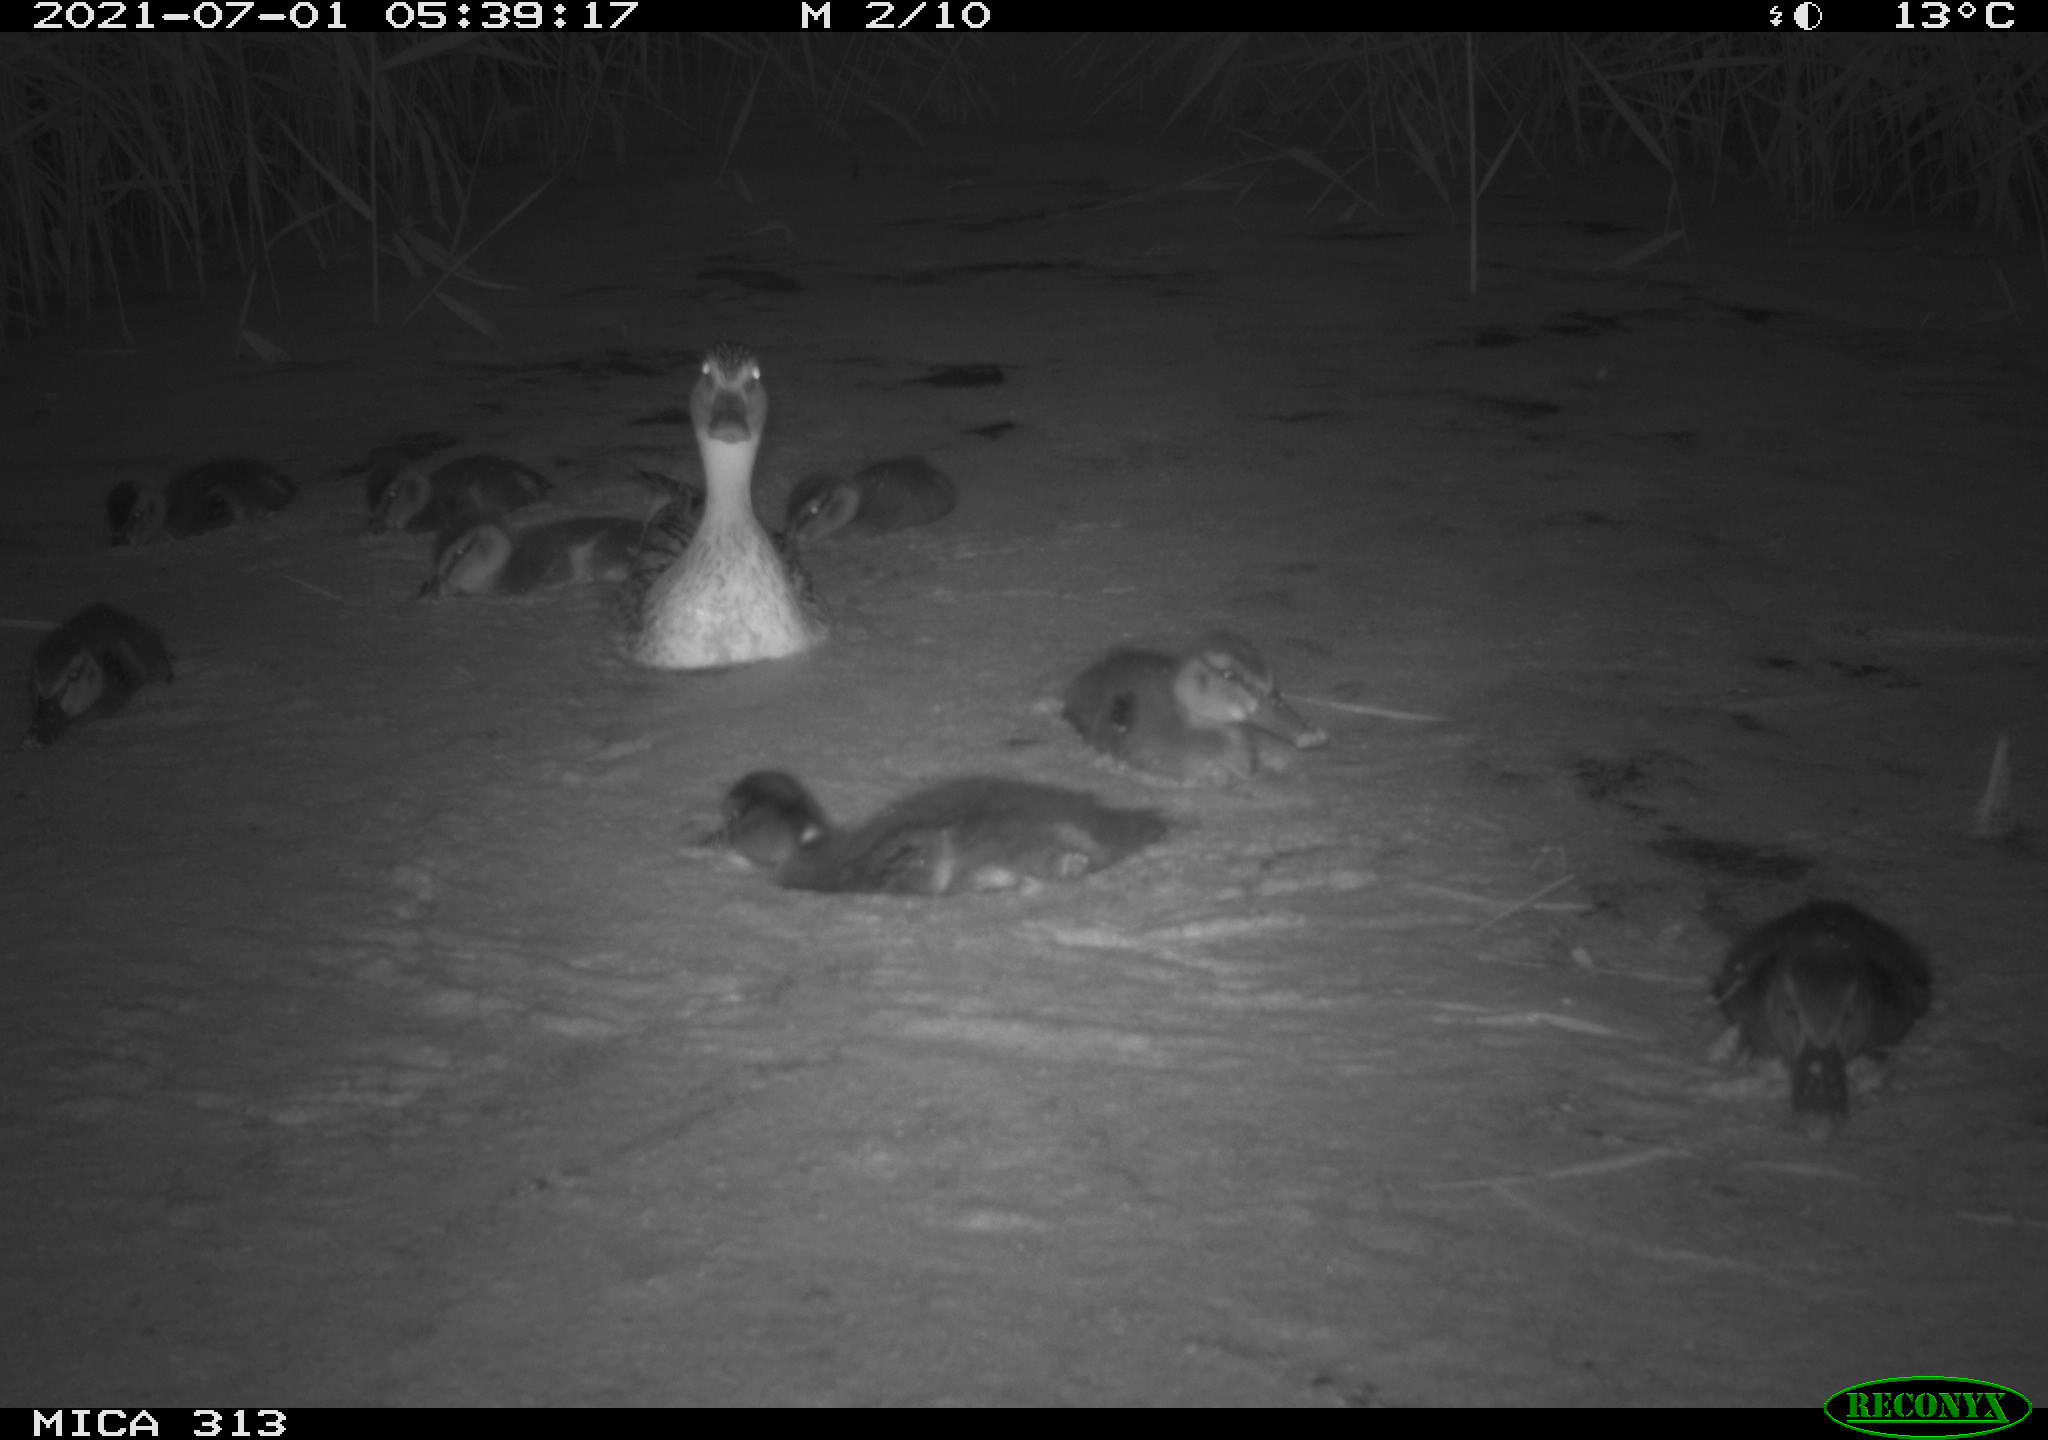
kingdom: Animalia
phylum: Chordata
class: Aves
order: Gruiformes
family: Rallidae
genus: Fulica
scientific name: Fulica atra
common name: Eurasian coot
